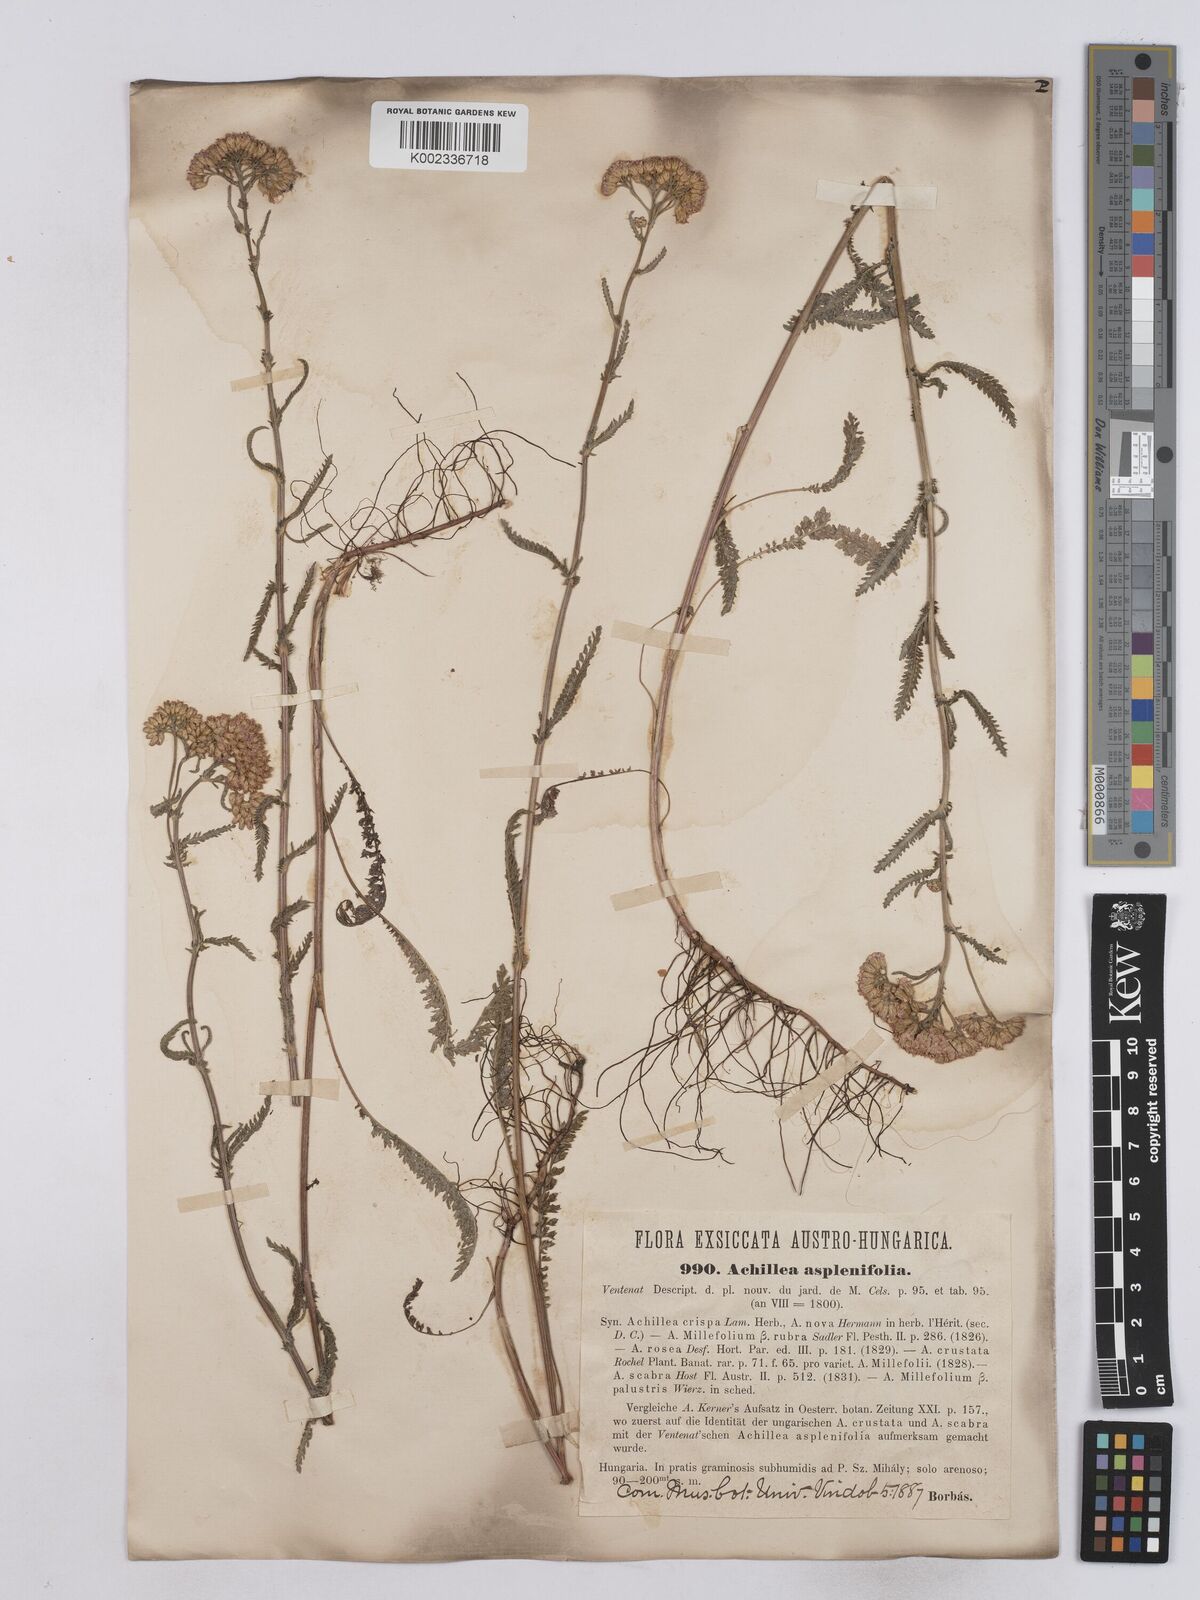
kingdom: Plantae
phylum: Tracheophyta
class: Magnoliopsida
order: Asterales
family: Asteraceae
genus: Achillea
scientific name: Achillea aspleniifolia
